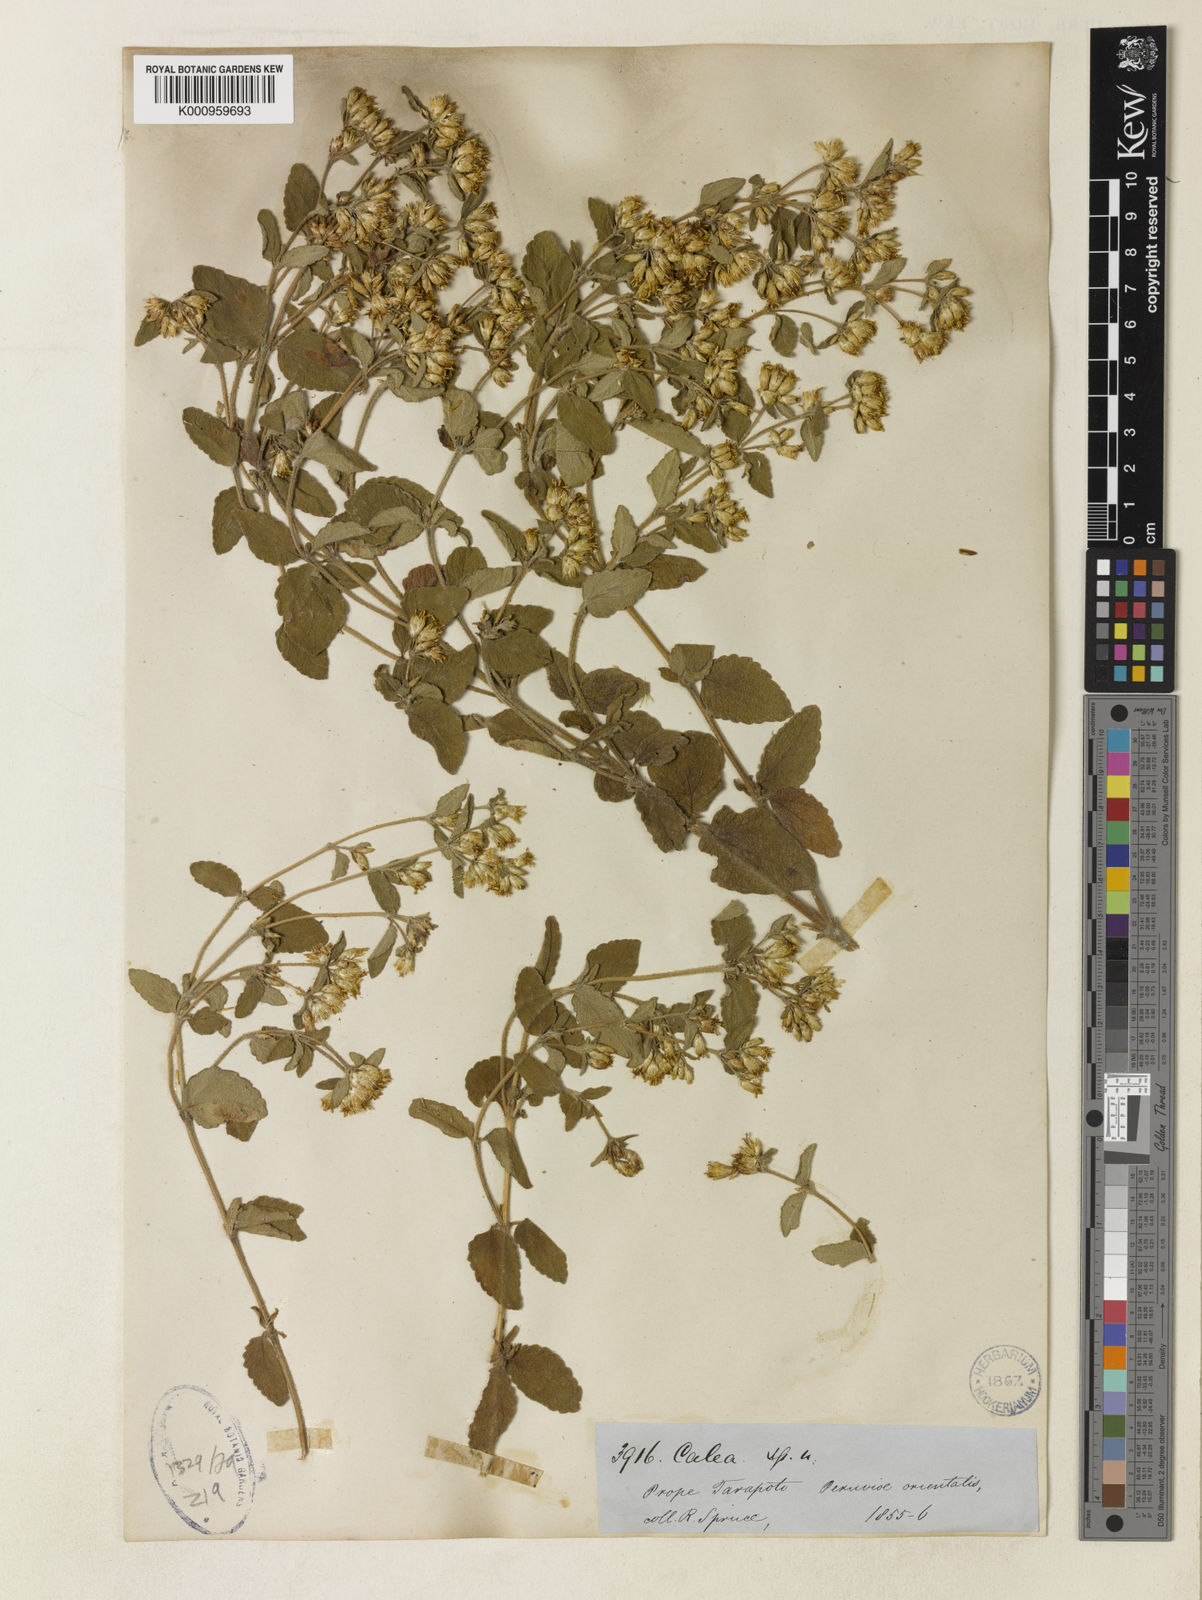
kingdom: Plantae
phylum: Tracheophyta
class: Magnoliopsida
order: Asterales
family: Asteraceae
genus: Calea
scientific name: Calea umbellulata
